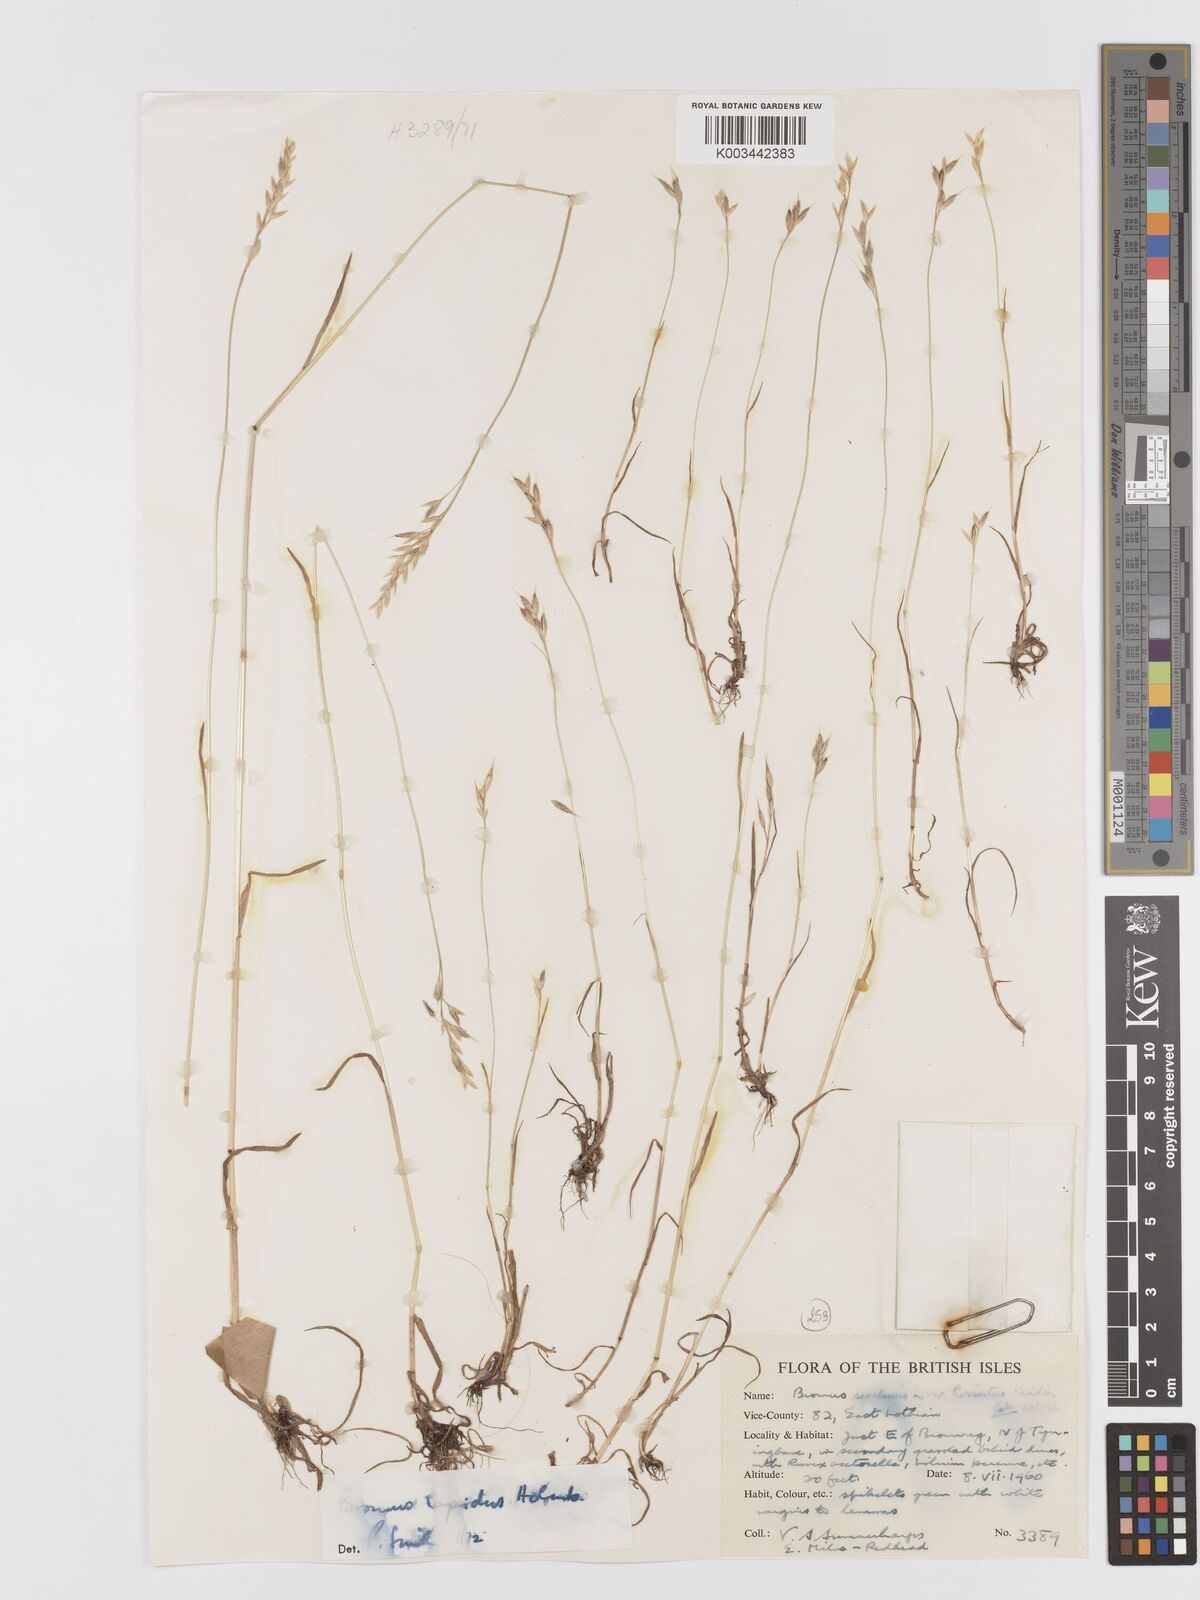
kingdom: Plantae
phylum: Tracheophyta
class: Liliopsida
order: Poales
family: Poaceae
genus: Bromus
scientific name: Bromus
